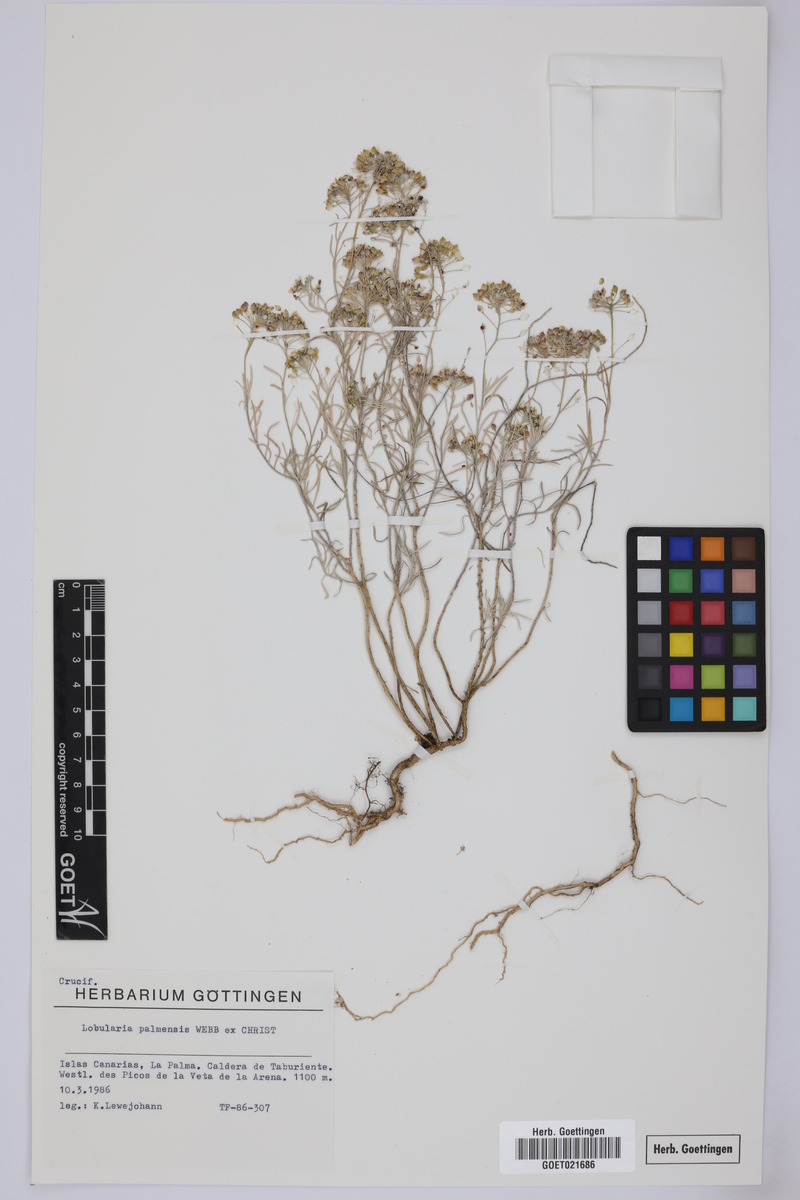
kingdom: Plantae
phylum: Tracheophyta
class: Magnoliopsida
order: Brassicales
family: Brassicaceae
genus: Lobularia
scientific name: Lobularia canariensis
